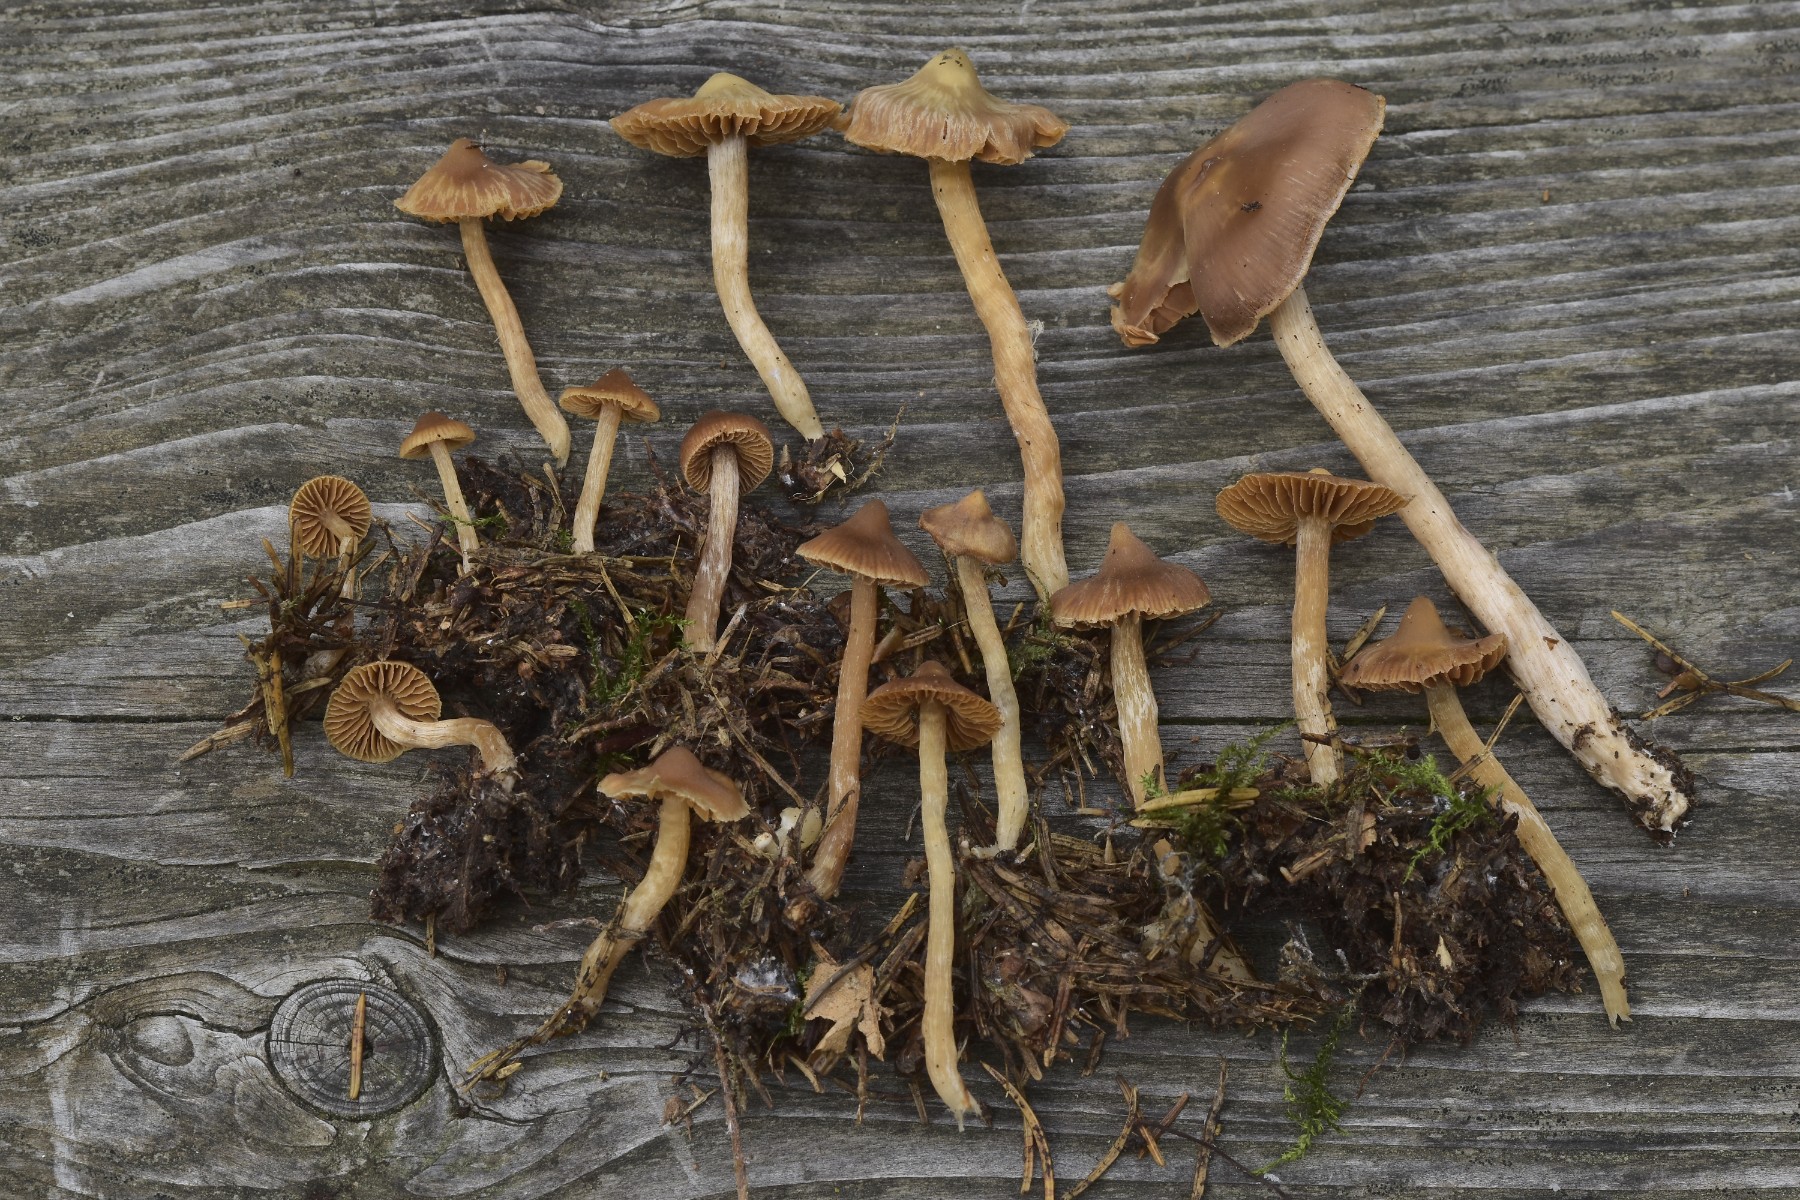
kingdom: Fungi
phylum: Basidiomycota
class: Agaricomycetes
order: Agaricales
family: Cortinariaceae
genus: Cortinarius
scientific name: Cortinarius
